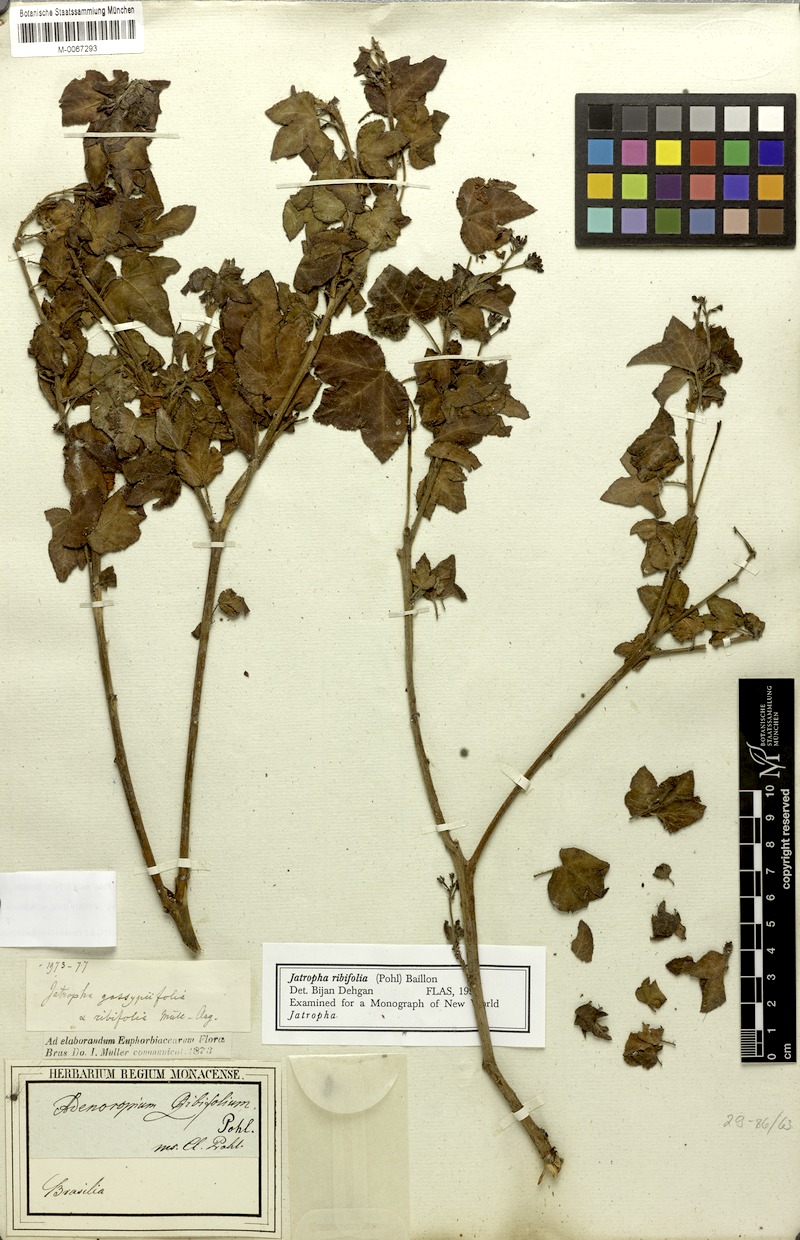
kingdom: Plantae
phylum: Tracheophyta
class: Magnoliopsida
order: Malpighiales
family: Euphorbiaceae
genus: Jatropha
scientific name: Jatropha ribifolia
